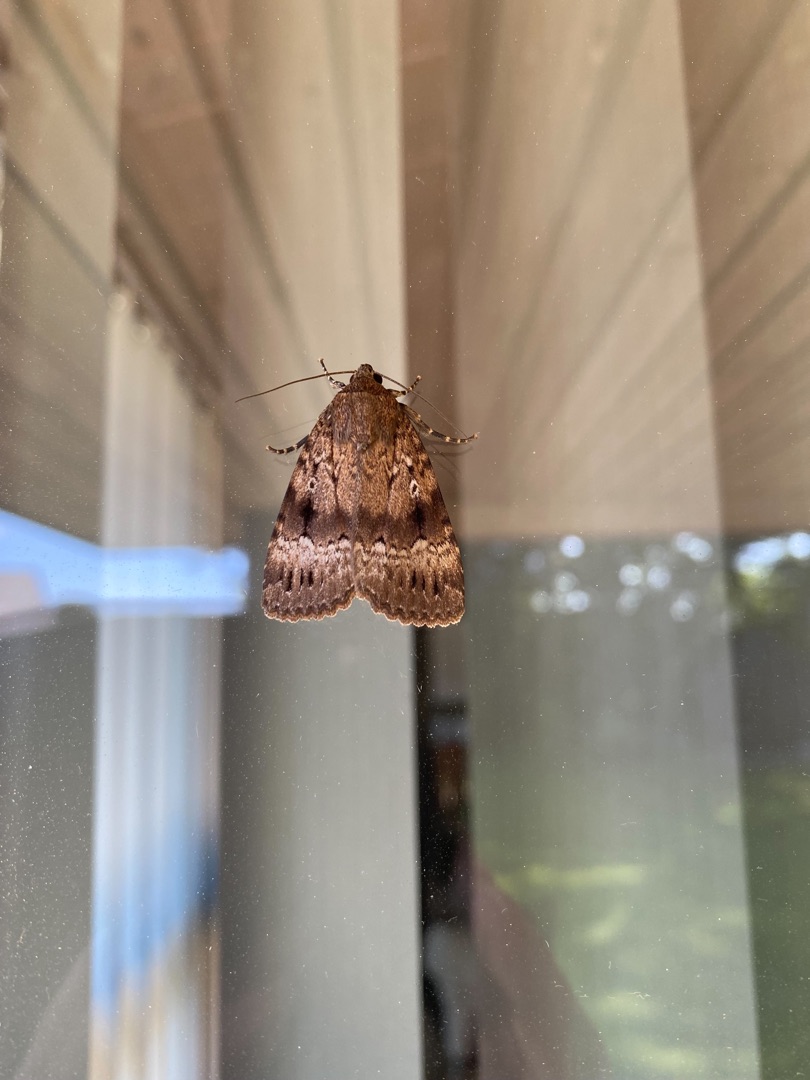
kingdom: Animalia
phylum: Arthropoda
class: Insecta
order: Lepidoptera
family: Noctuidae
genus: Amphipyra
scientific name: Amphipyra pyramidea
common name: Pyramideugle
